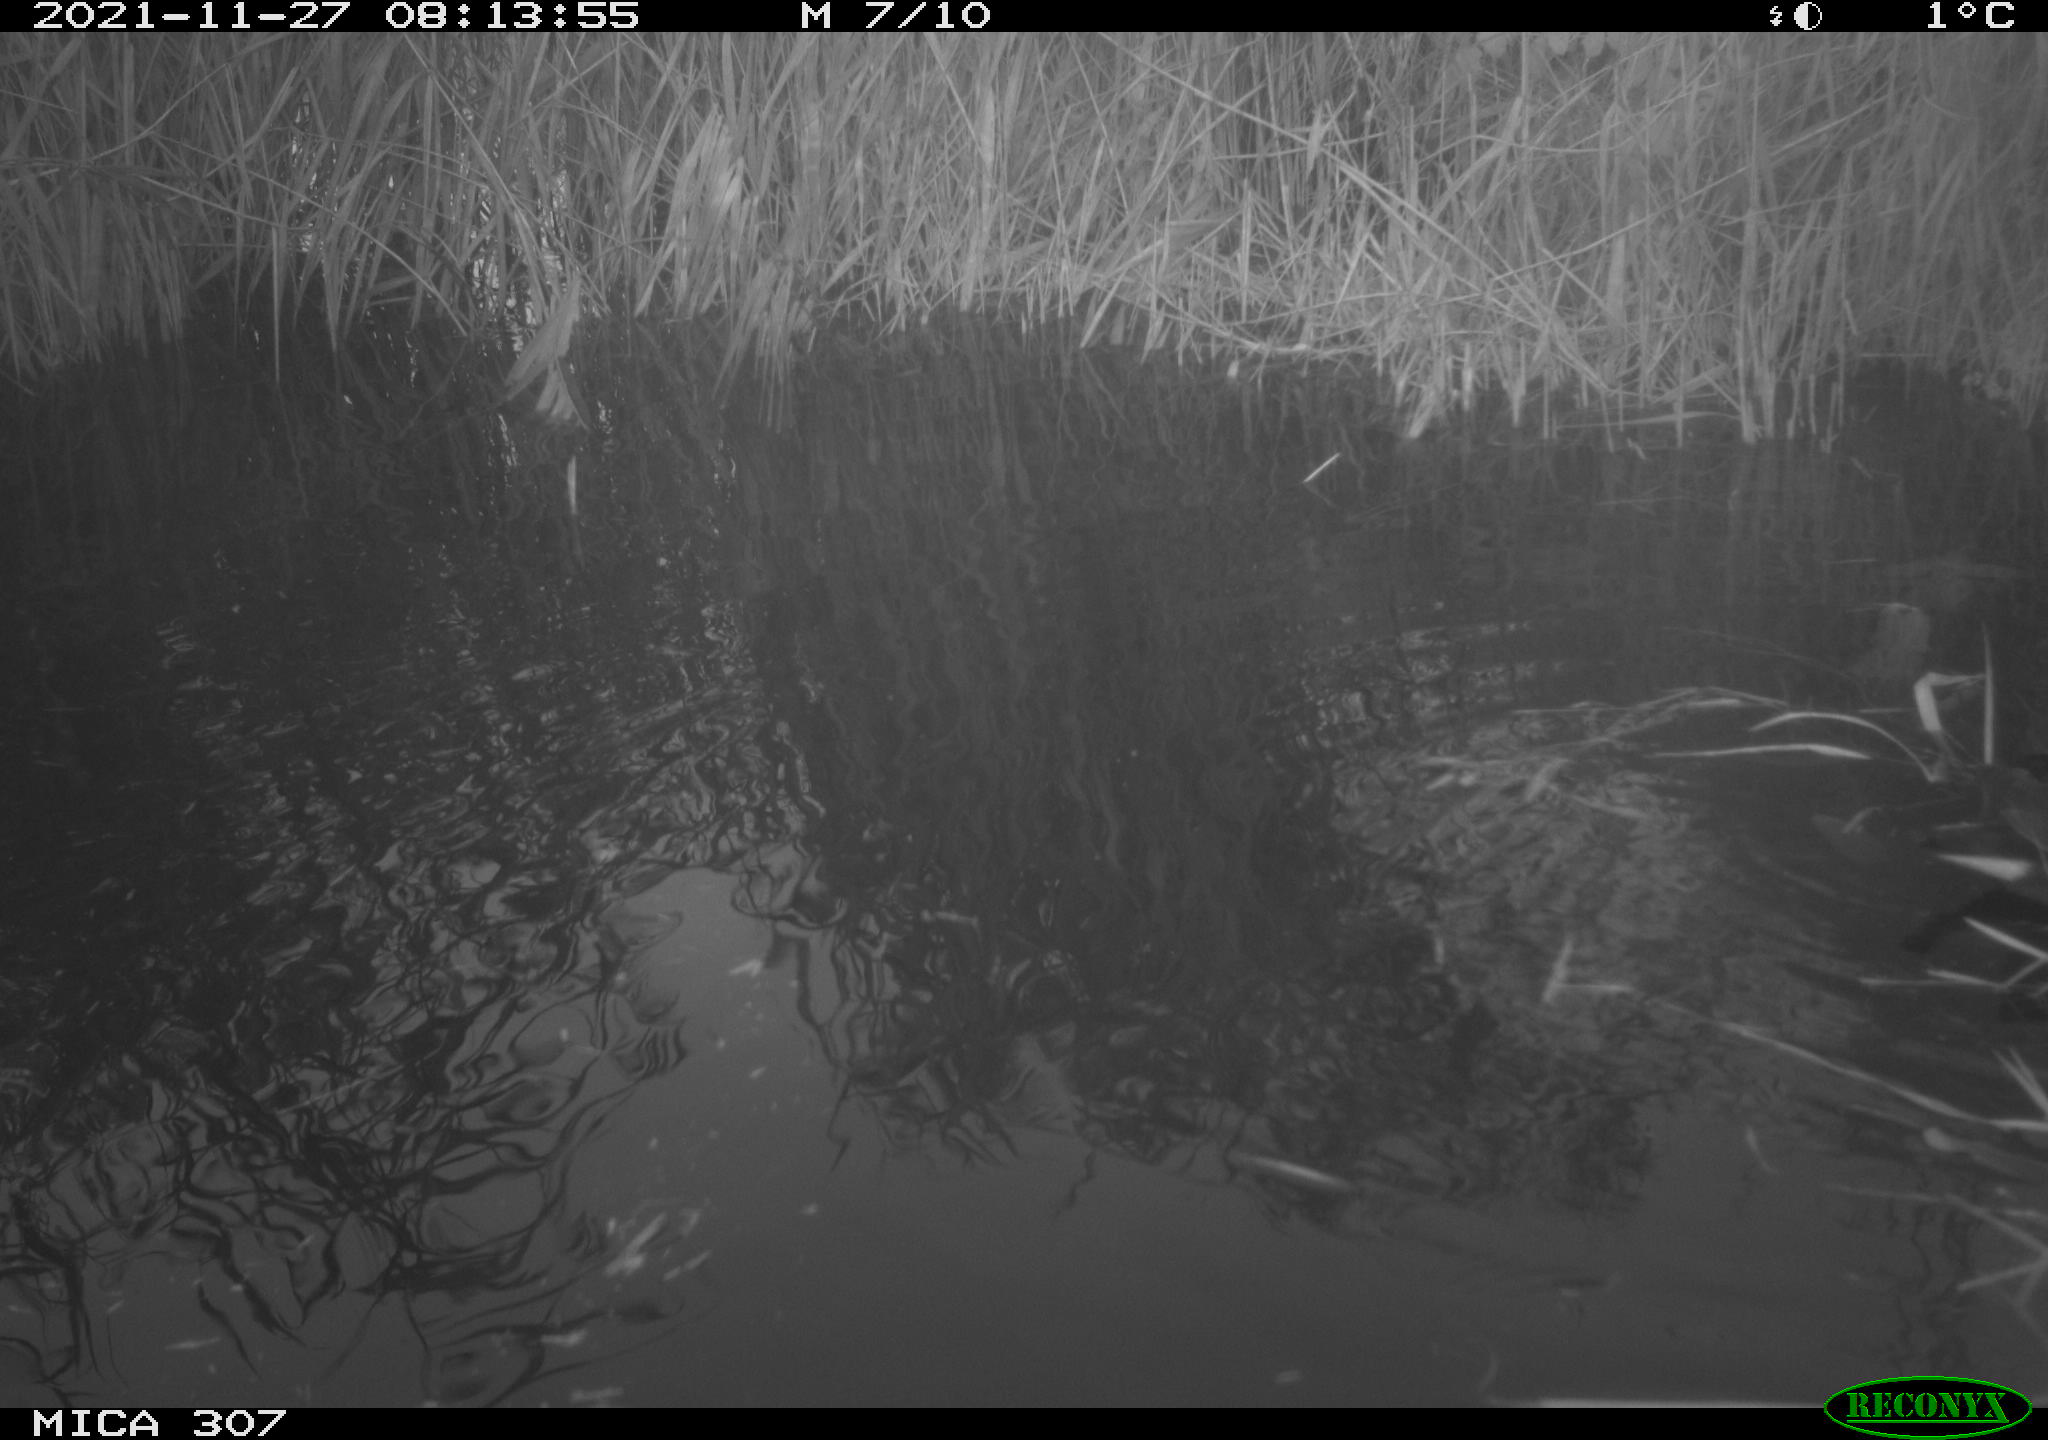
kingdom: Animalia
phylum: Chordata
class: Aves
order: Gruiformes
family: Rallidae
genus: Gallinula
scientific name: Gallinula chloropus
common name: Common moorhen
